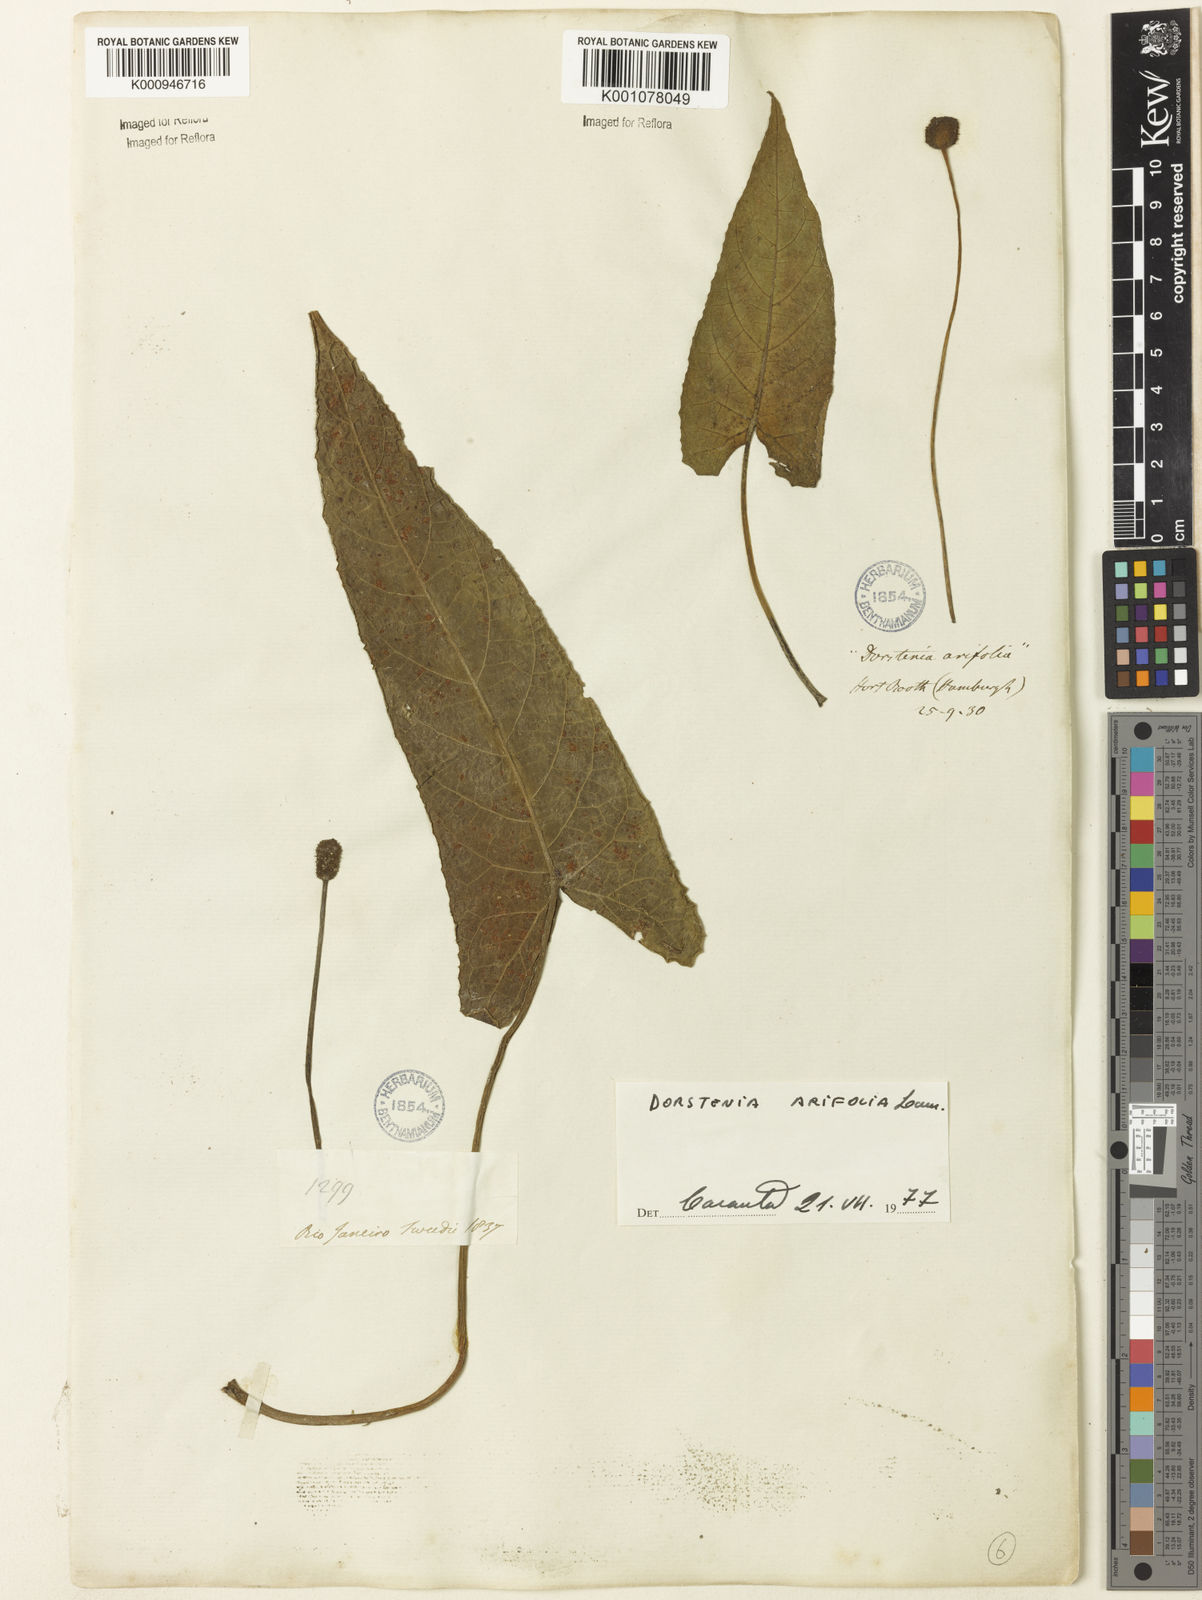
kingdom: Plantae
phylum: Tracheophyta
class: Magnoliopsida
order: Rosales
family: Moraceae
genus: Dorstenia
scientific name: Dorstenia arifolia
